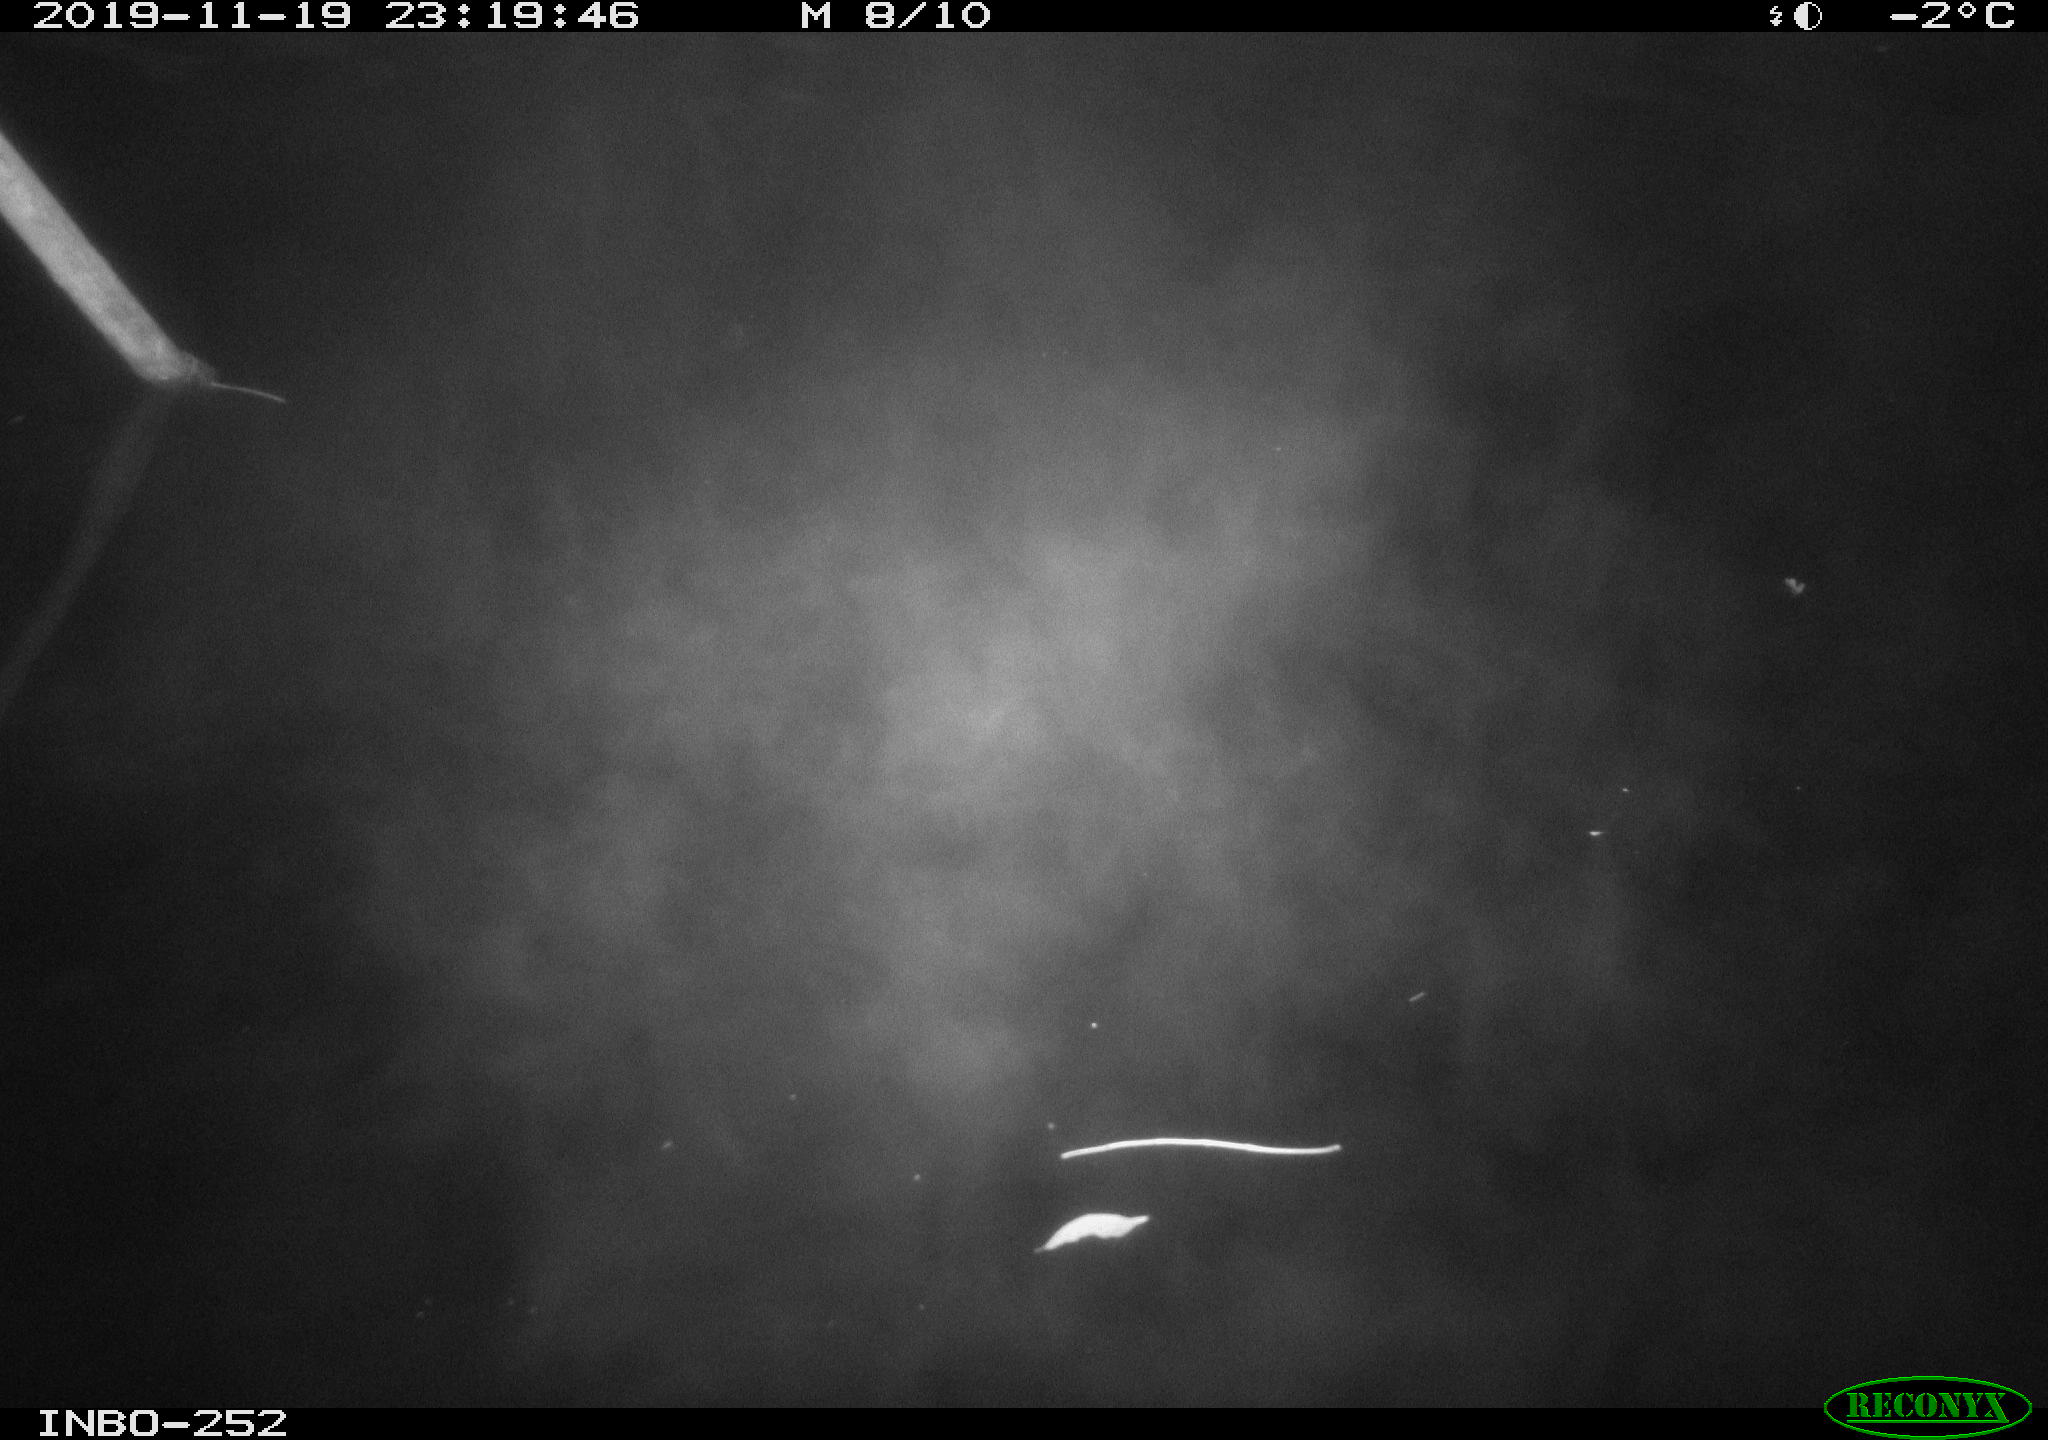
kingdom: Animalia
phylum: Chordata
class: Aves
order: Anseriformes
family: Anatidae
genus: Anas
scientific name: Anas platyrhynchos
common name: Mallard
